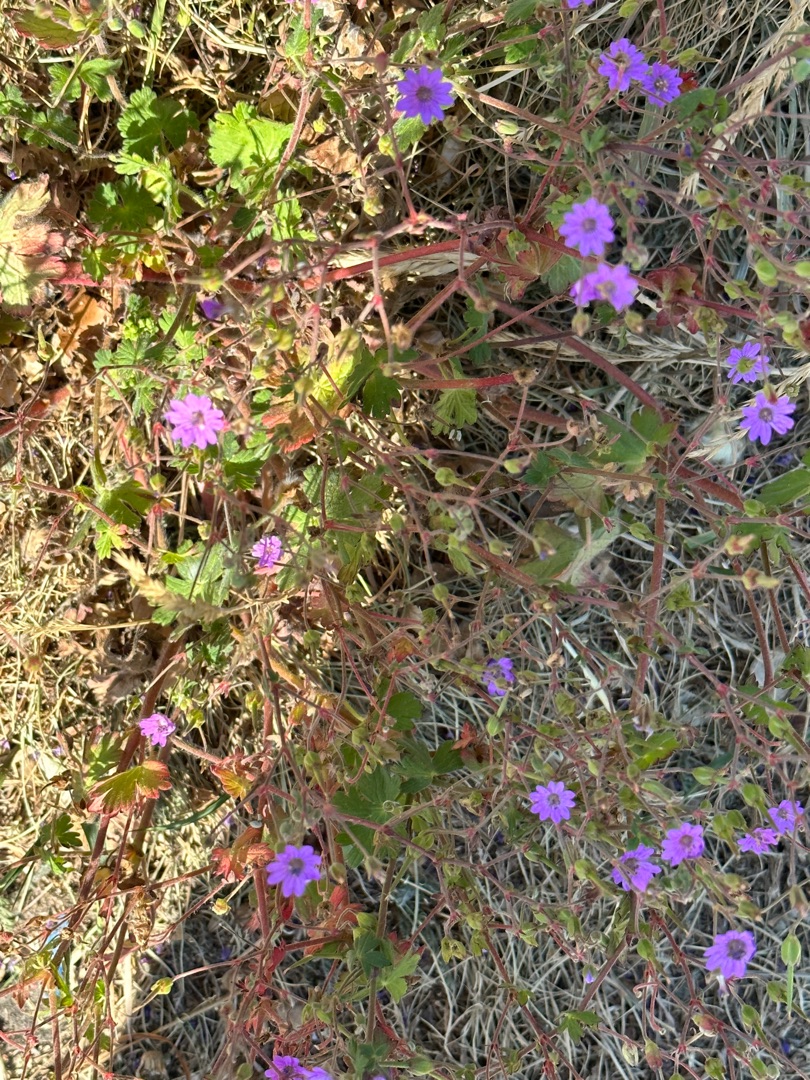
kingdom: Plantae
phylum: Tracheophyta
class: Magnoliopsida
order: Geraniales
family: Geraniaceae
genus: Geranium
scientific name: Geranium pyrenaicum
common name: Pyrenæisk storkenæb
